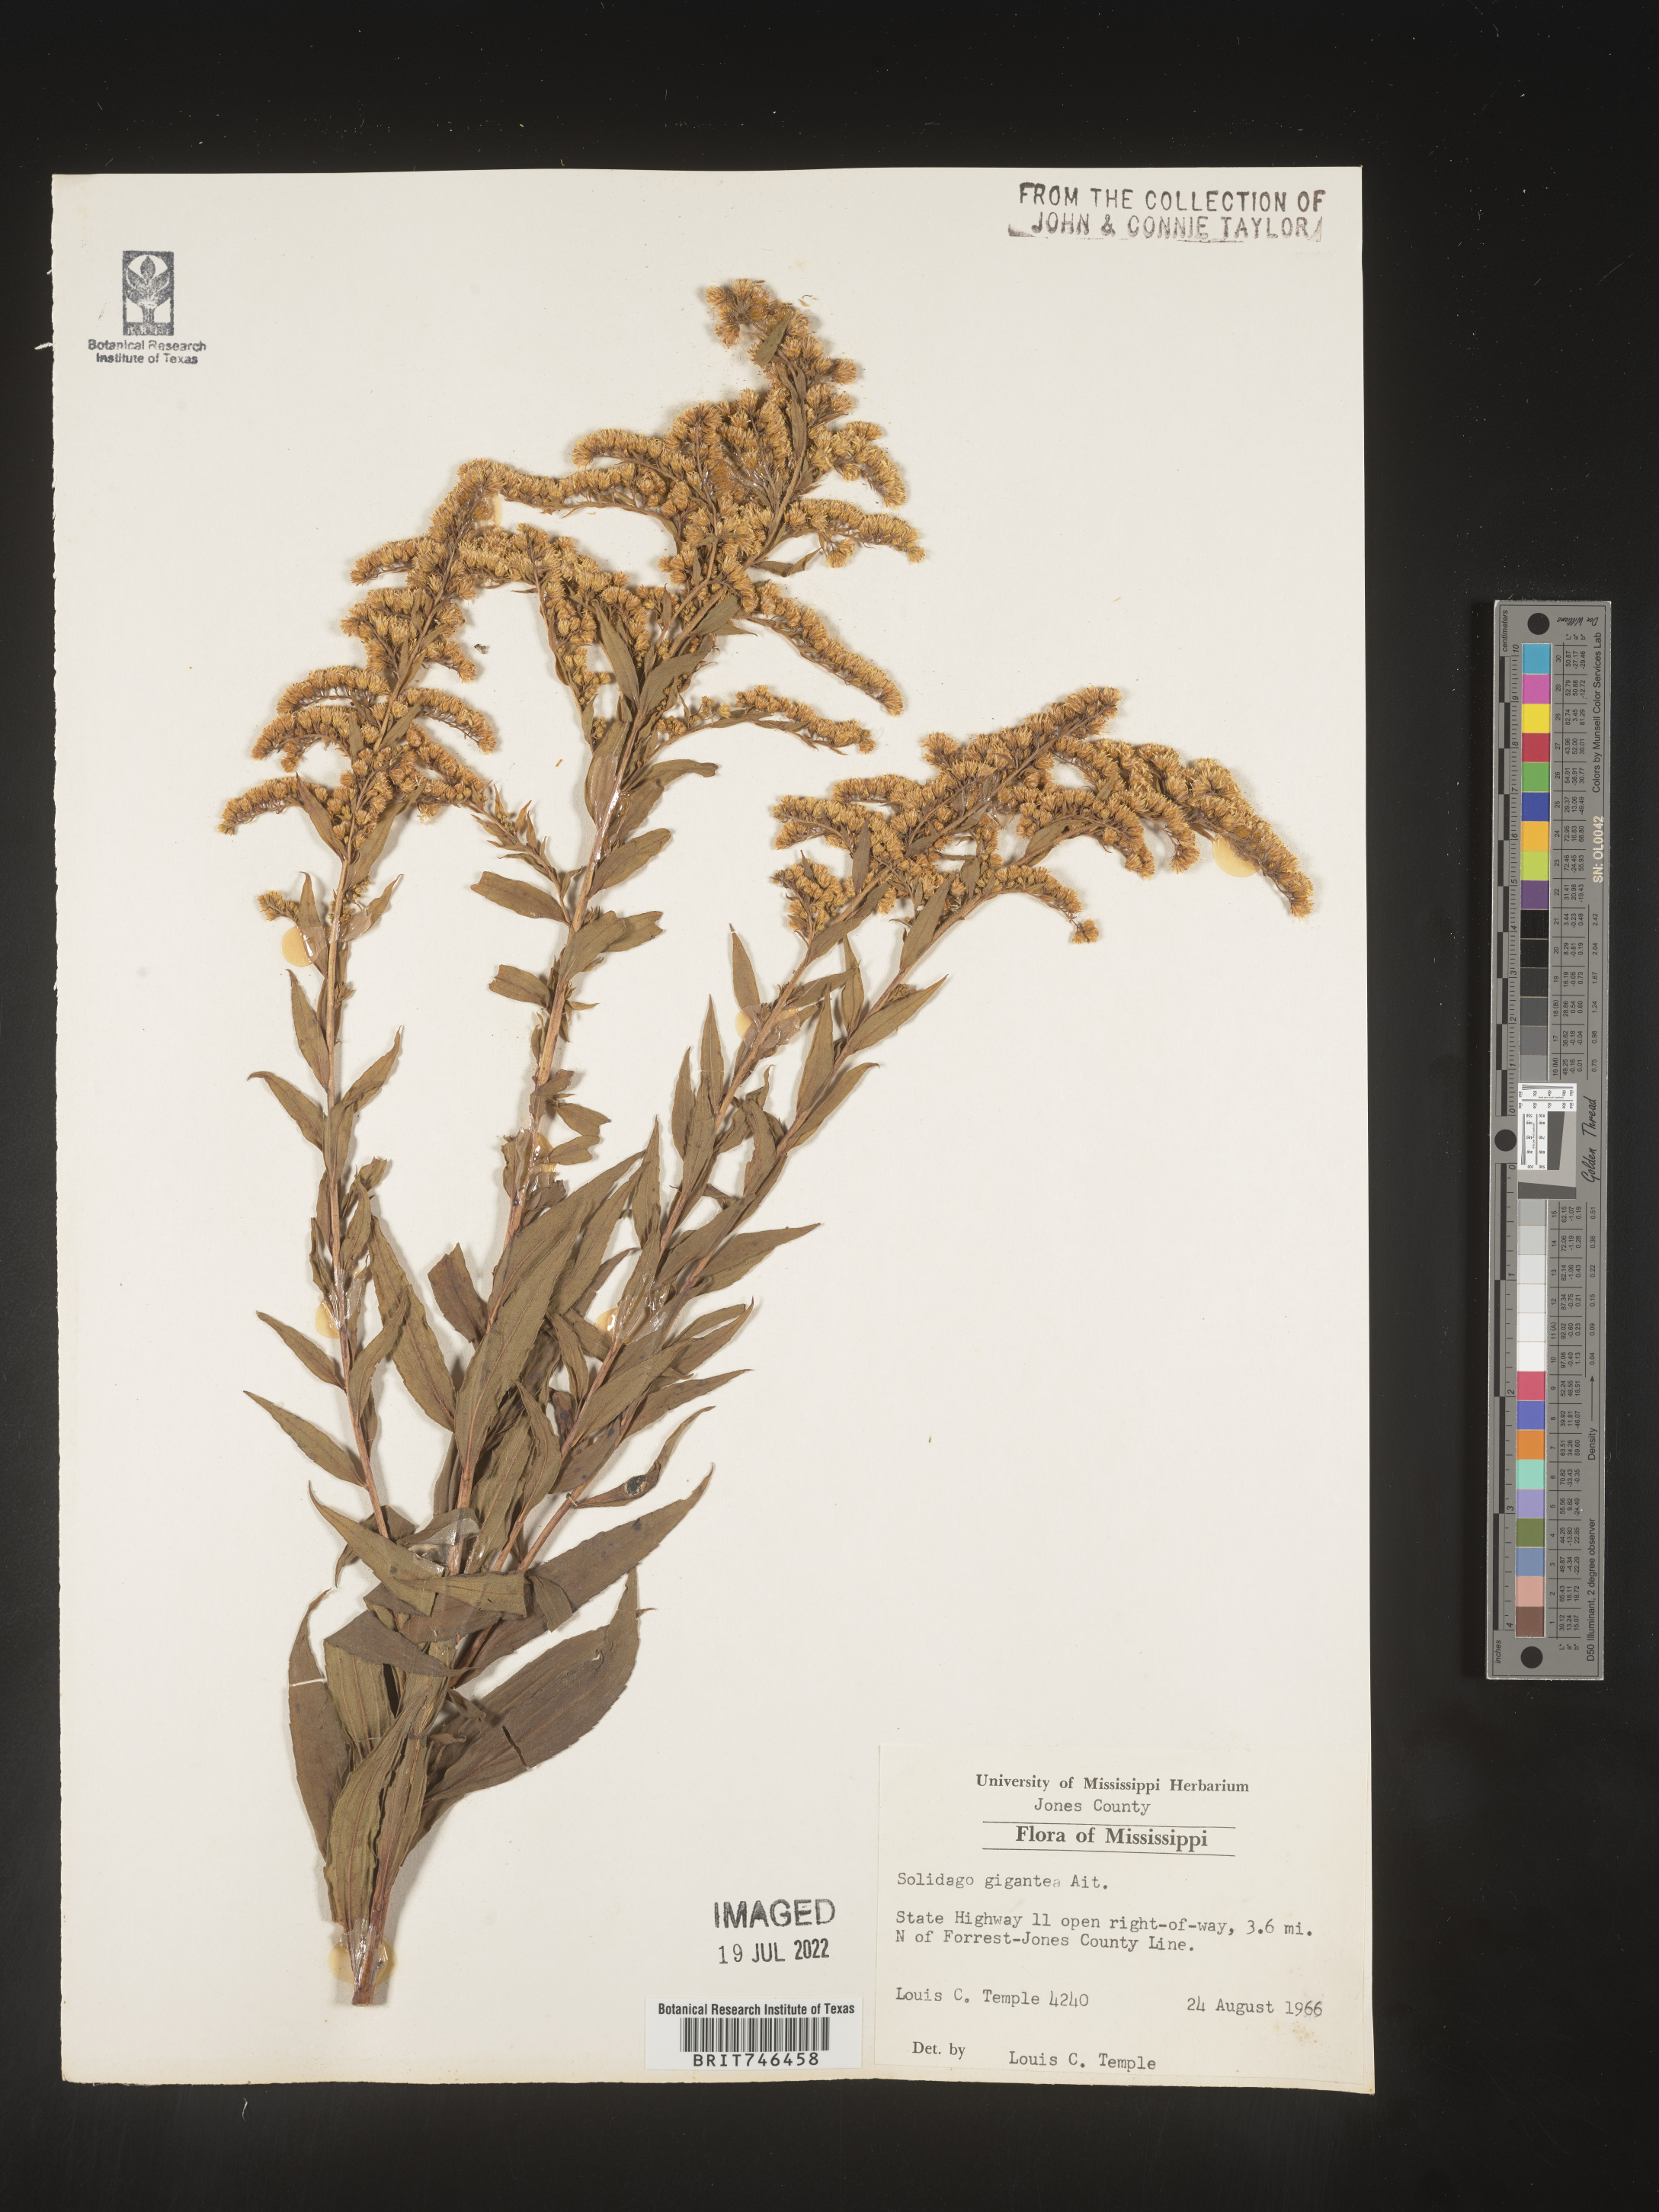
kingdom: Plantae
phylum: Tracheophyta
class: Magnoliopsida
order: Asterales
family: Asteraceae
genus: Solidago
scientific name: Solidago gigantea
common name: Giant goldenrod
